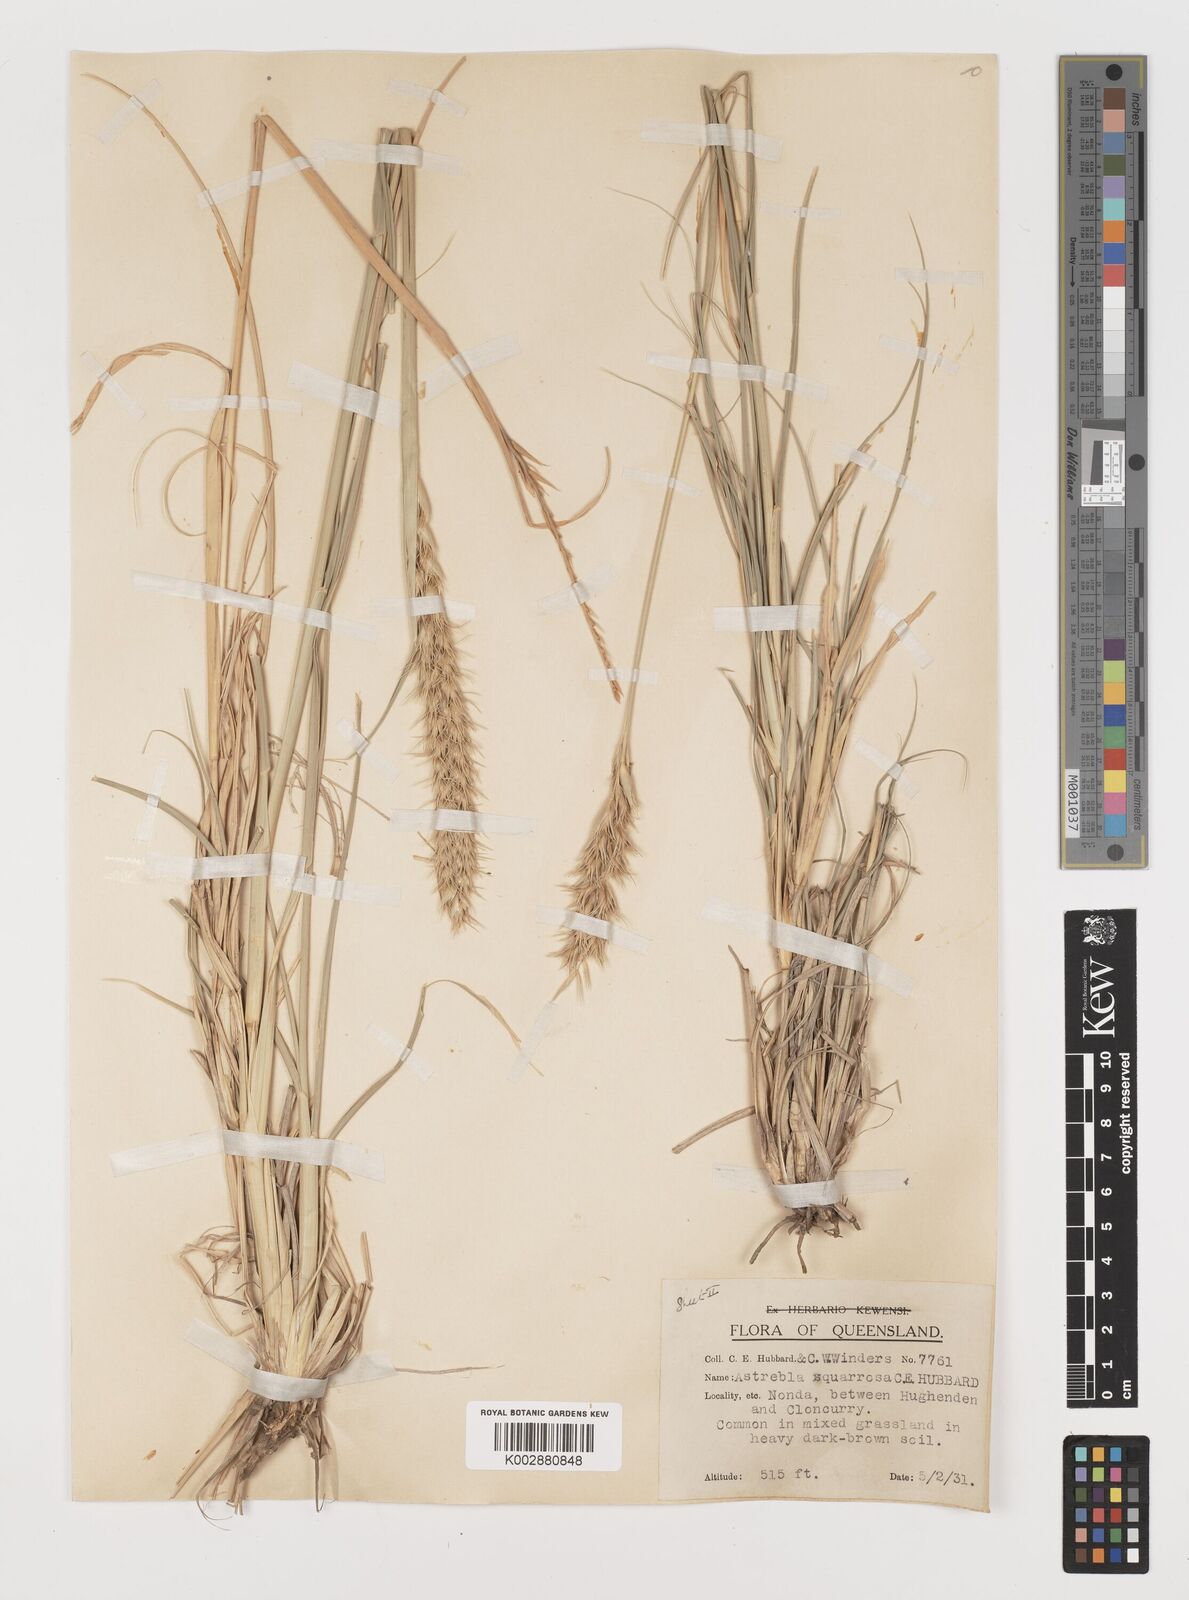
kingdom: Plantae
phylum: Tracheophyta
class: Liliopsida
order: Poales
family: Poaceae
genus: Astrebla
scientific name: Astrebla squarrosa
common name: Wheat-ear mitchell grass
